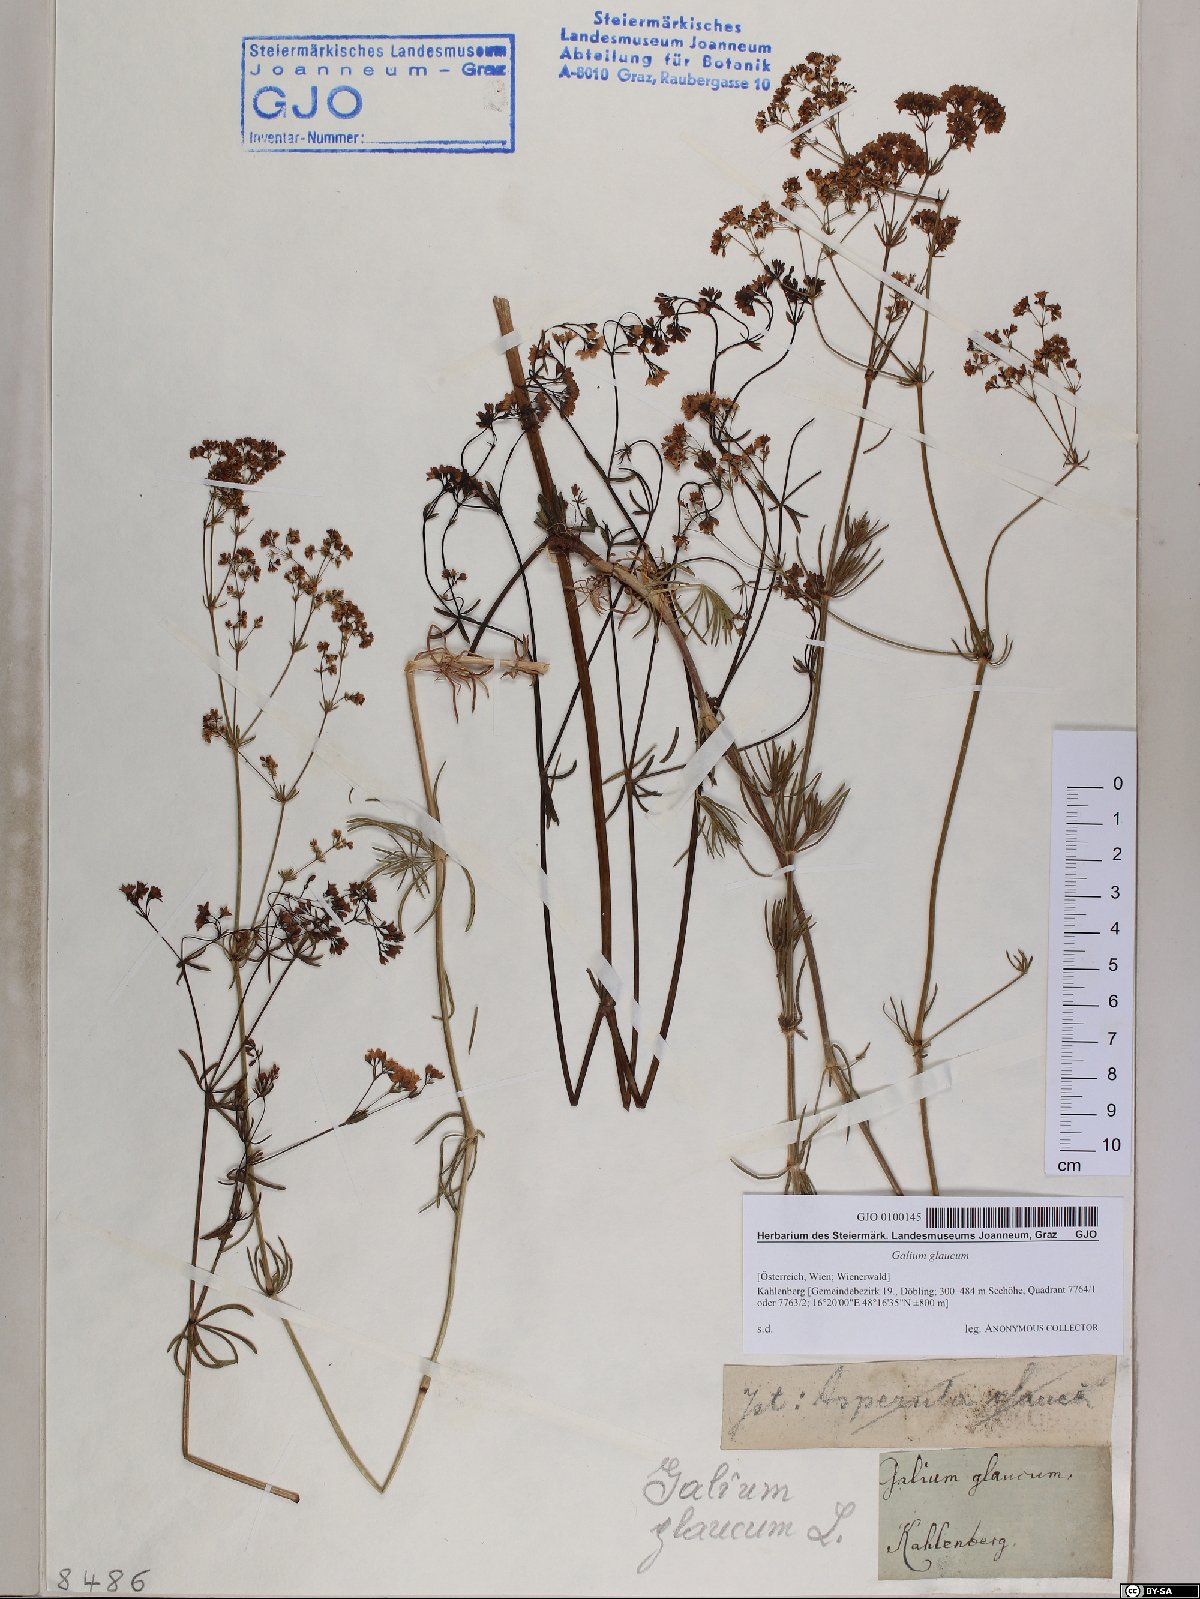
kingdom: Plantae
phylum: Tracheophyta
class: Magnoliopsida
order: Gentianales
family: Rubiaceae
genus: Galium
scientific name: Galium glaucum
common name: Waxy bedstraw
